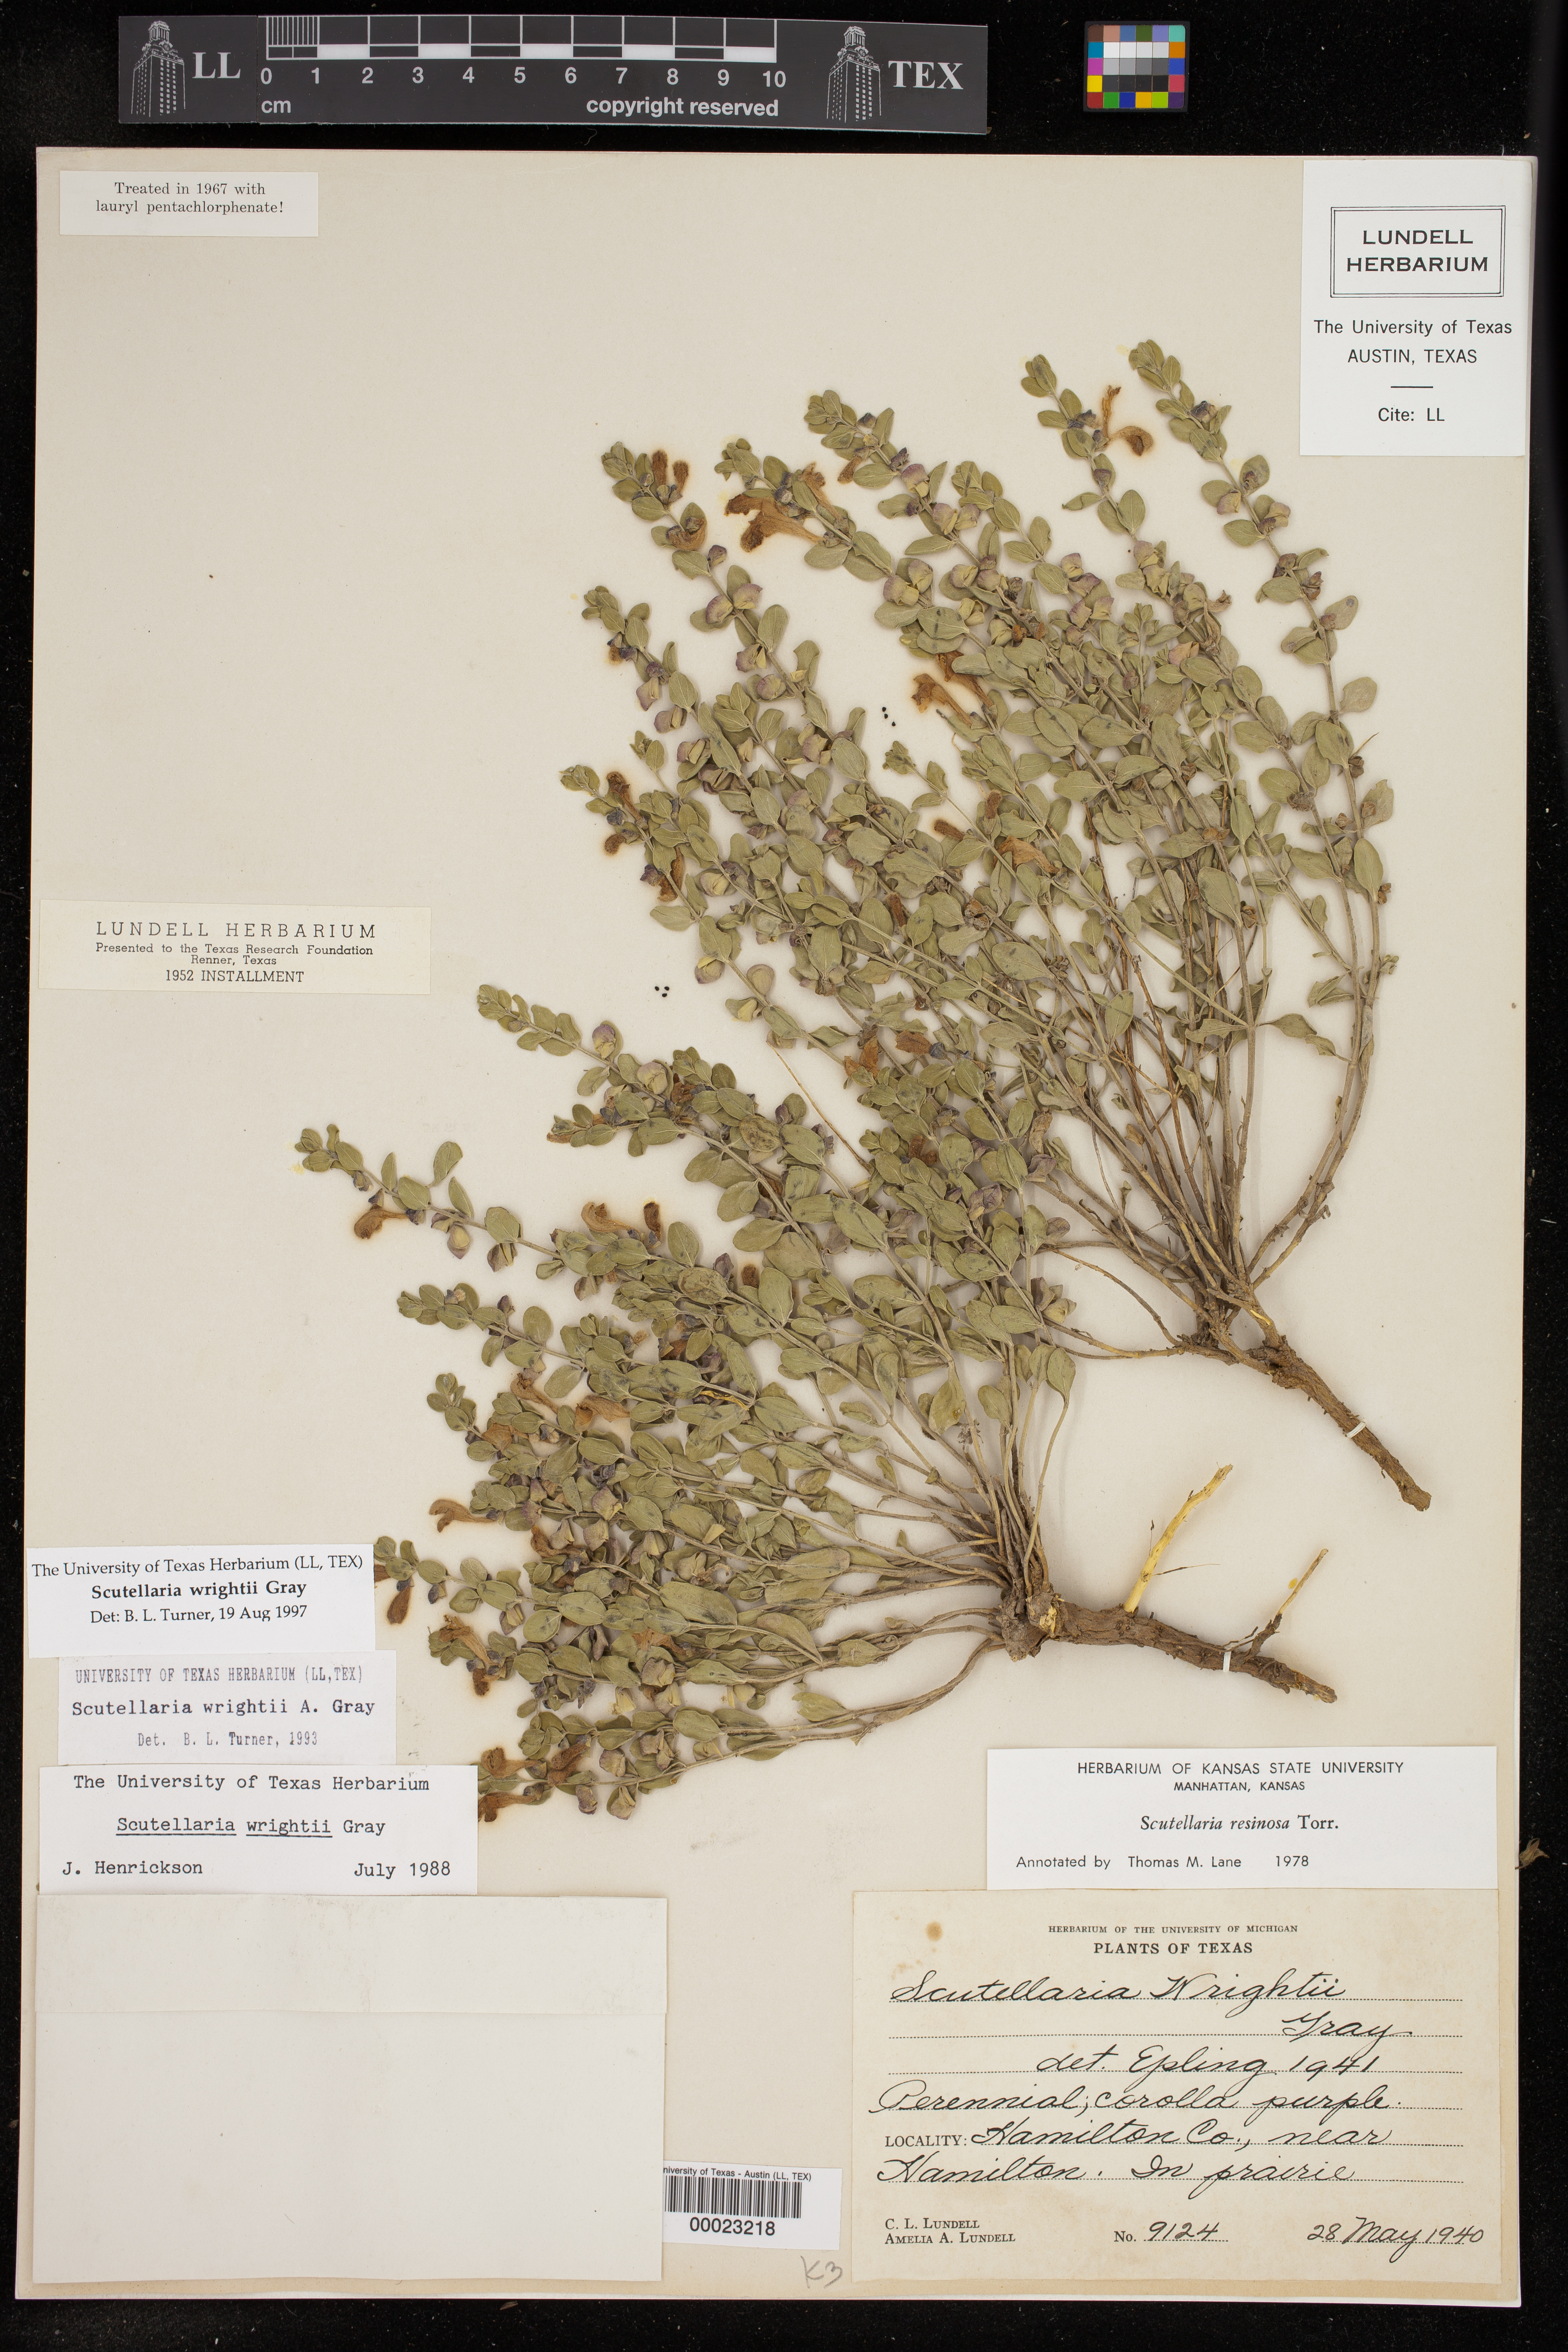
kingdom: Plantae
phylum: Tracheophyta
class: Magnoliopsida
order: Lamiales
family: Lamiaceae
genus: Scutellaria
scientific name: Scutellaria wrightii
